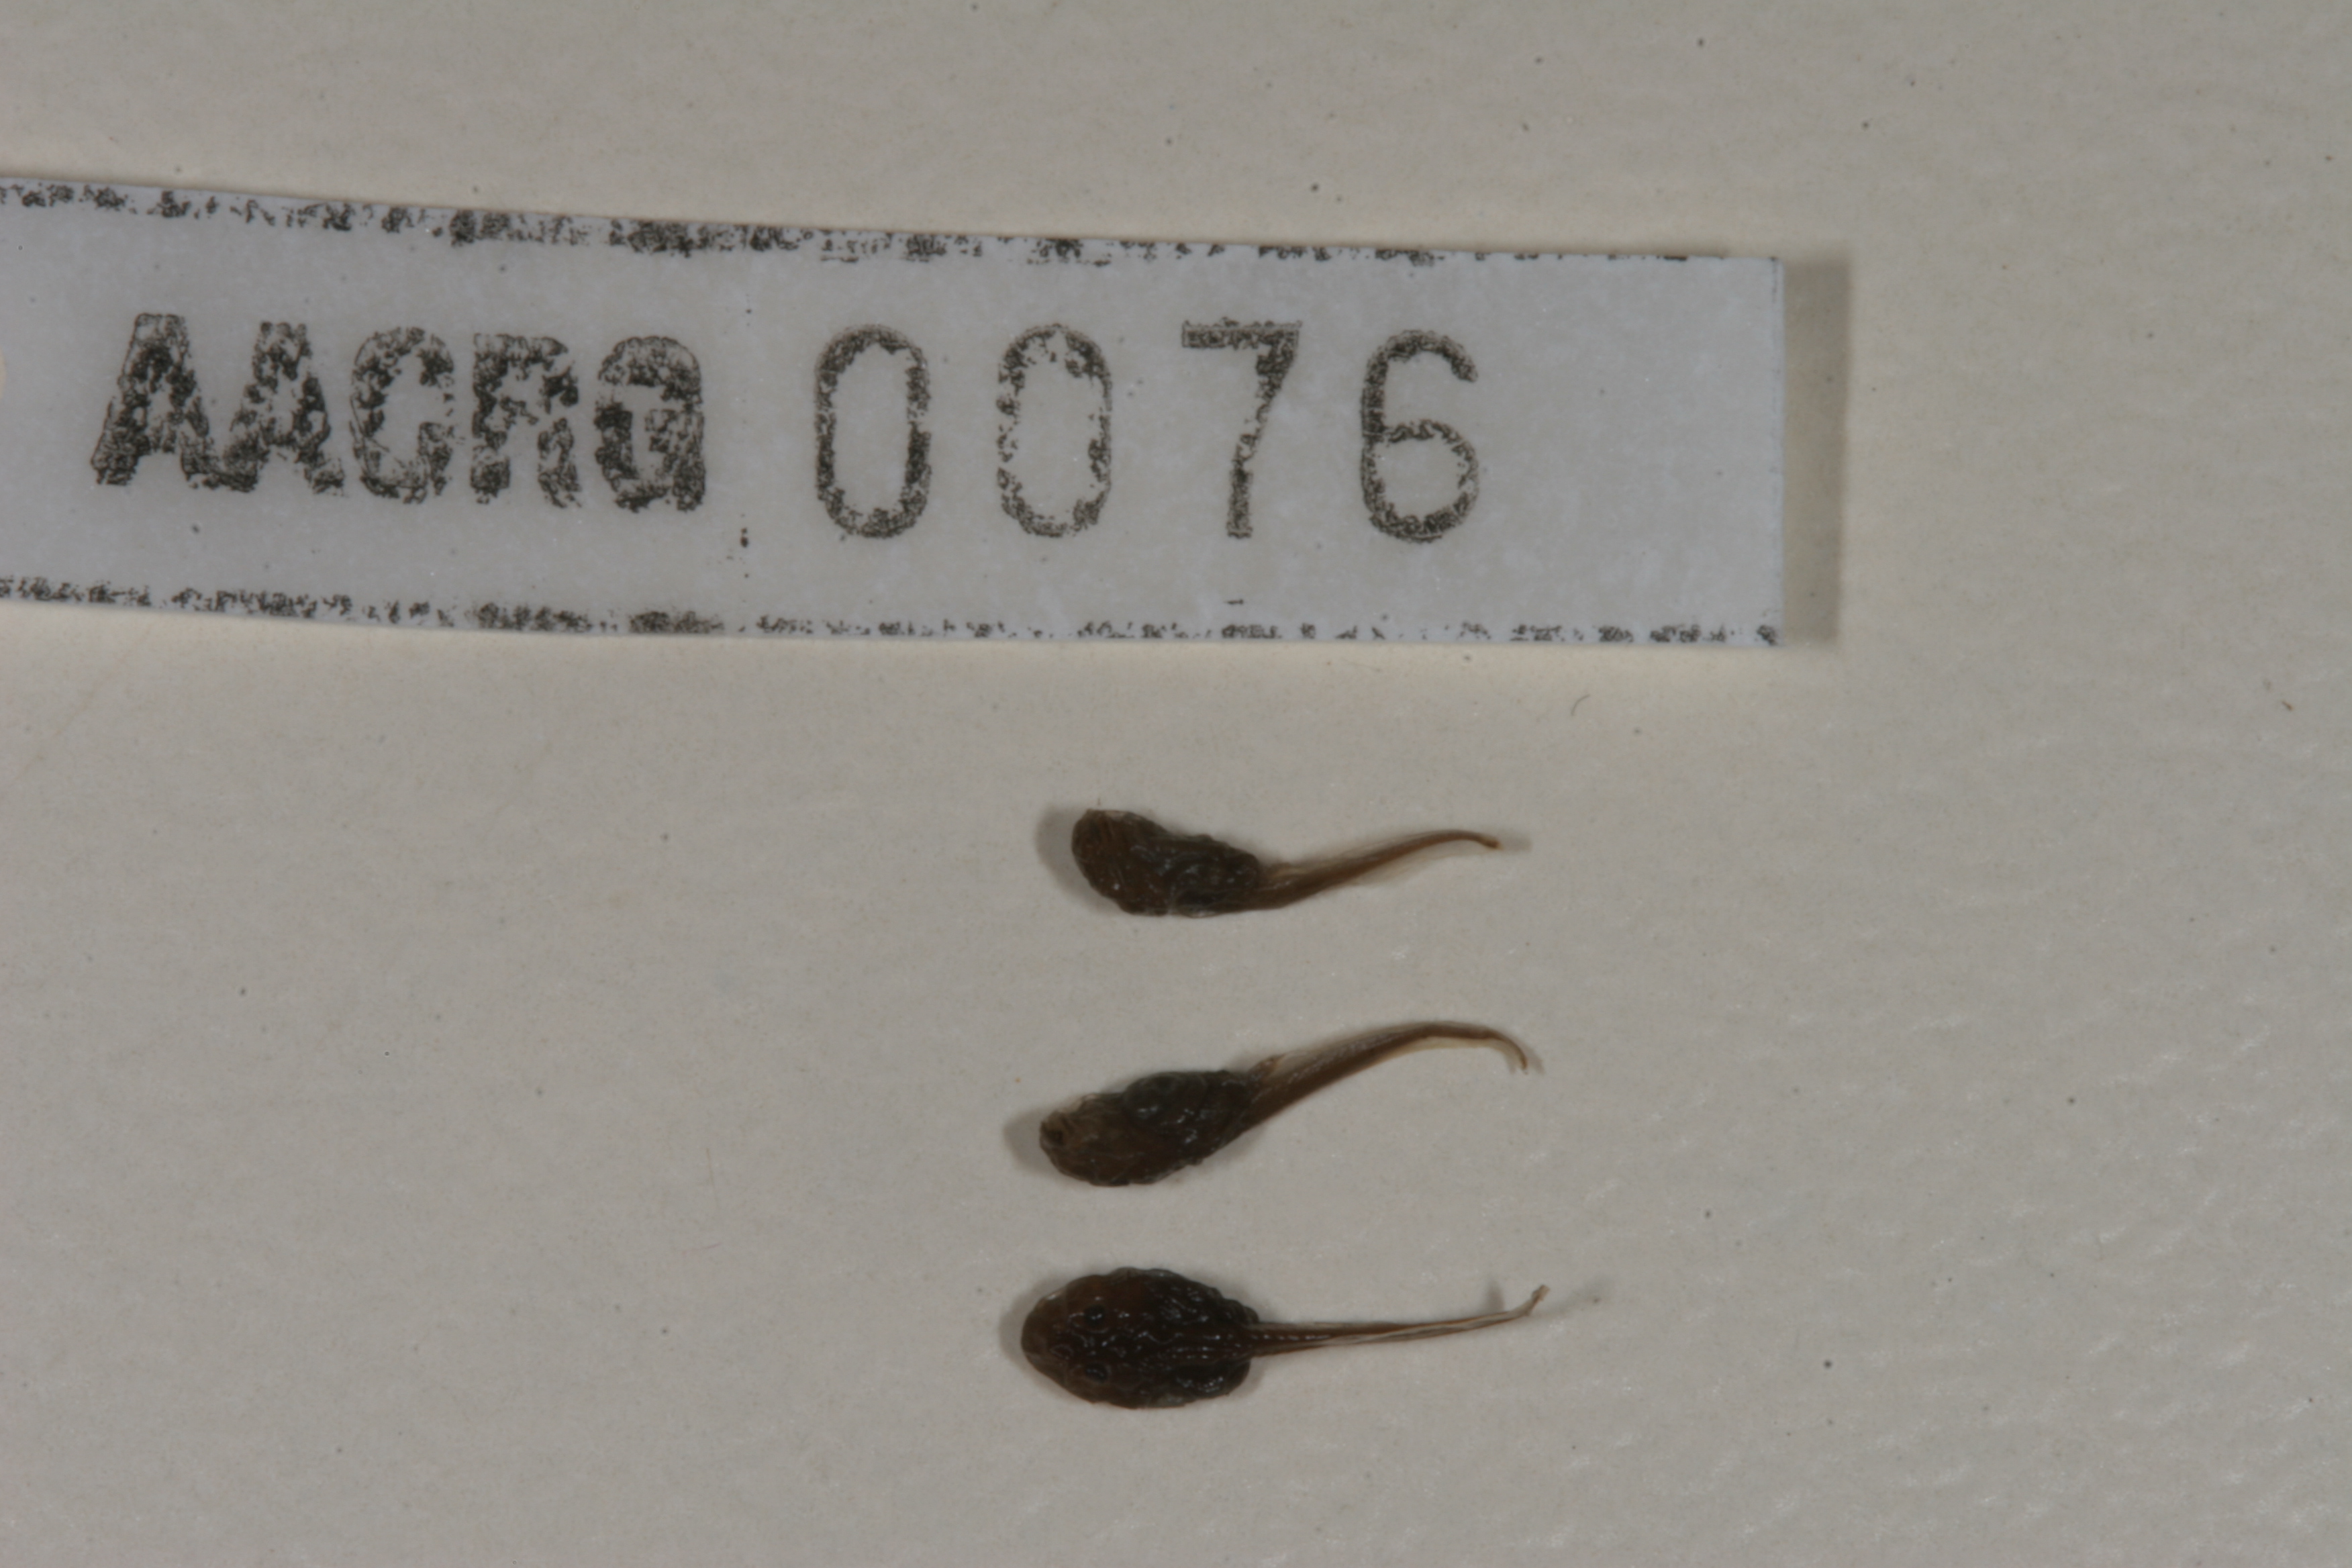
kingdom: Animalia
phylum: Chordata
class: Amphibia
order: Anura
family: Bufonidae
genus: Vandijkophrynus
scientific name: Vandijkophrynus gariepensis
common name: Gariep toad
